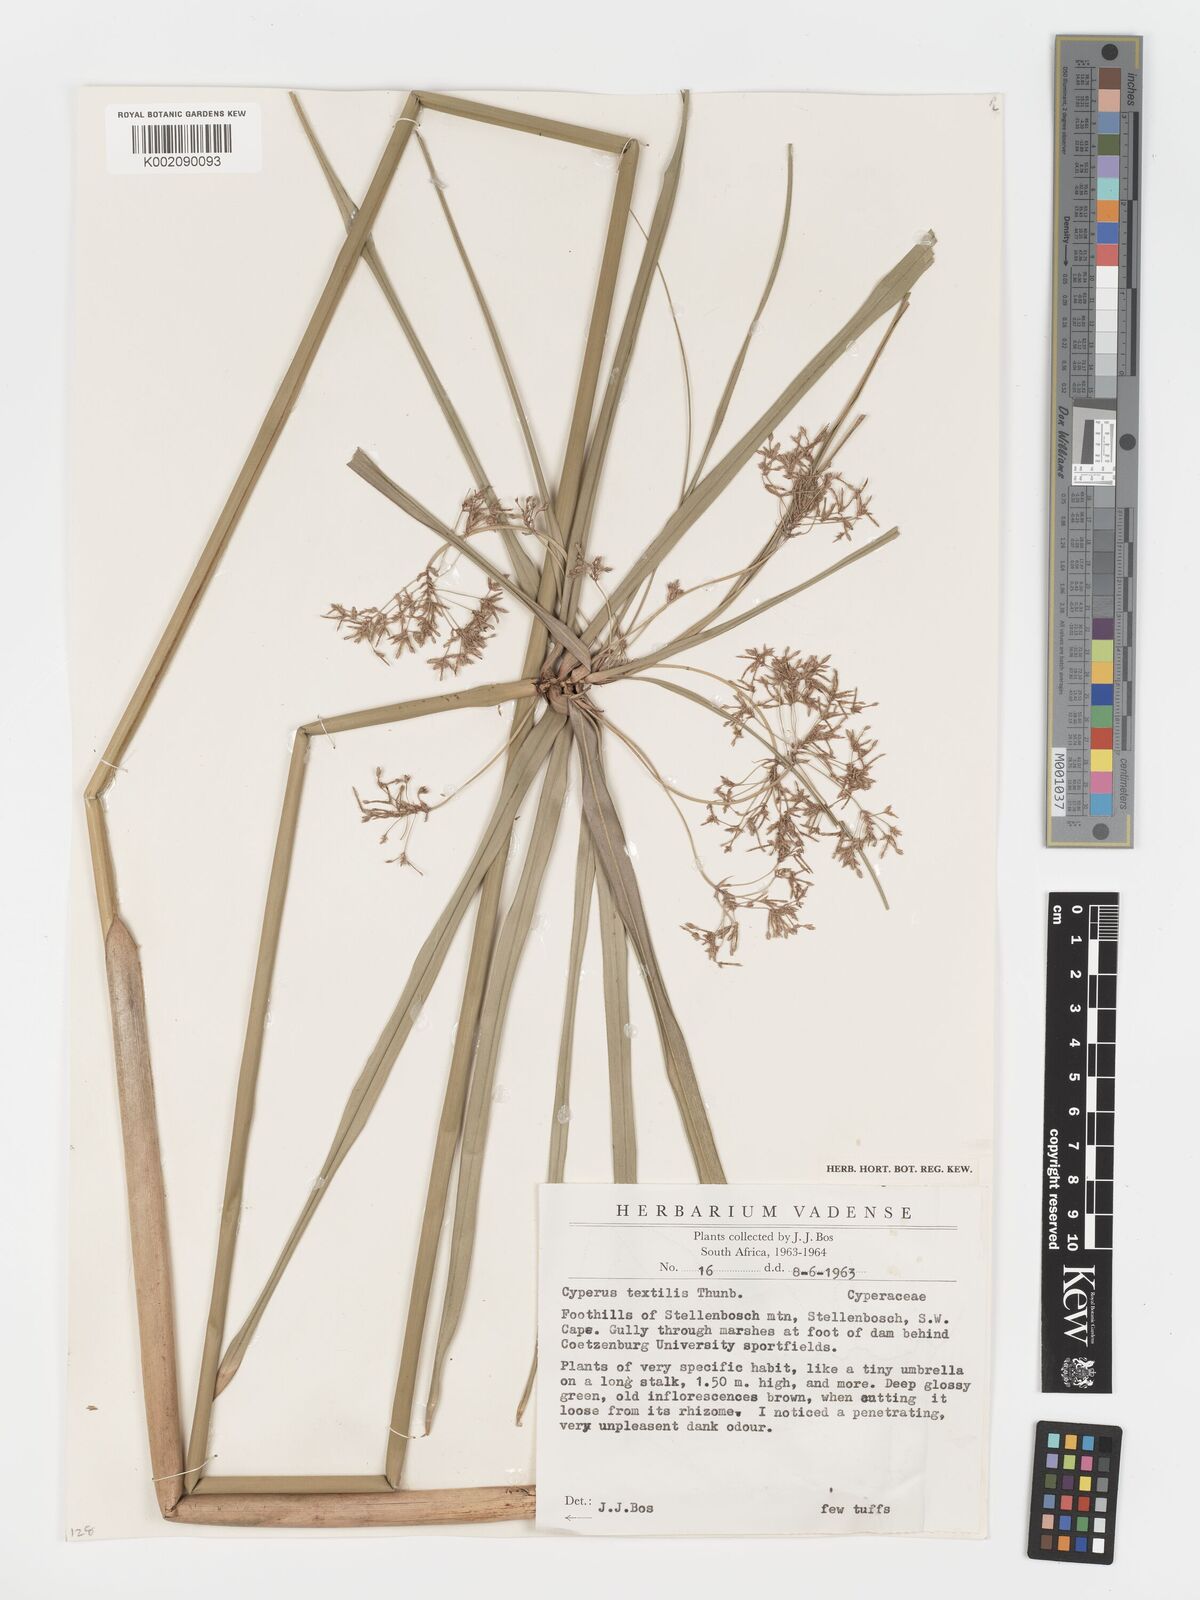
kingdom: Plantae
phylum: Tracheophyta
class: Liliopsida
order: Poales
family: Cyperaceae
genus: Cyperus
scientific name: Cyperus alternifolius
